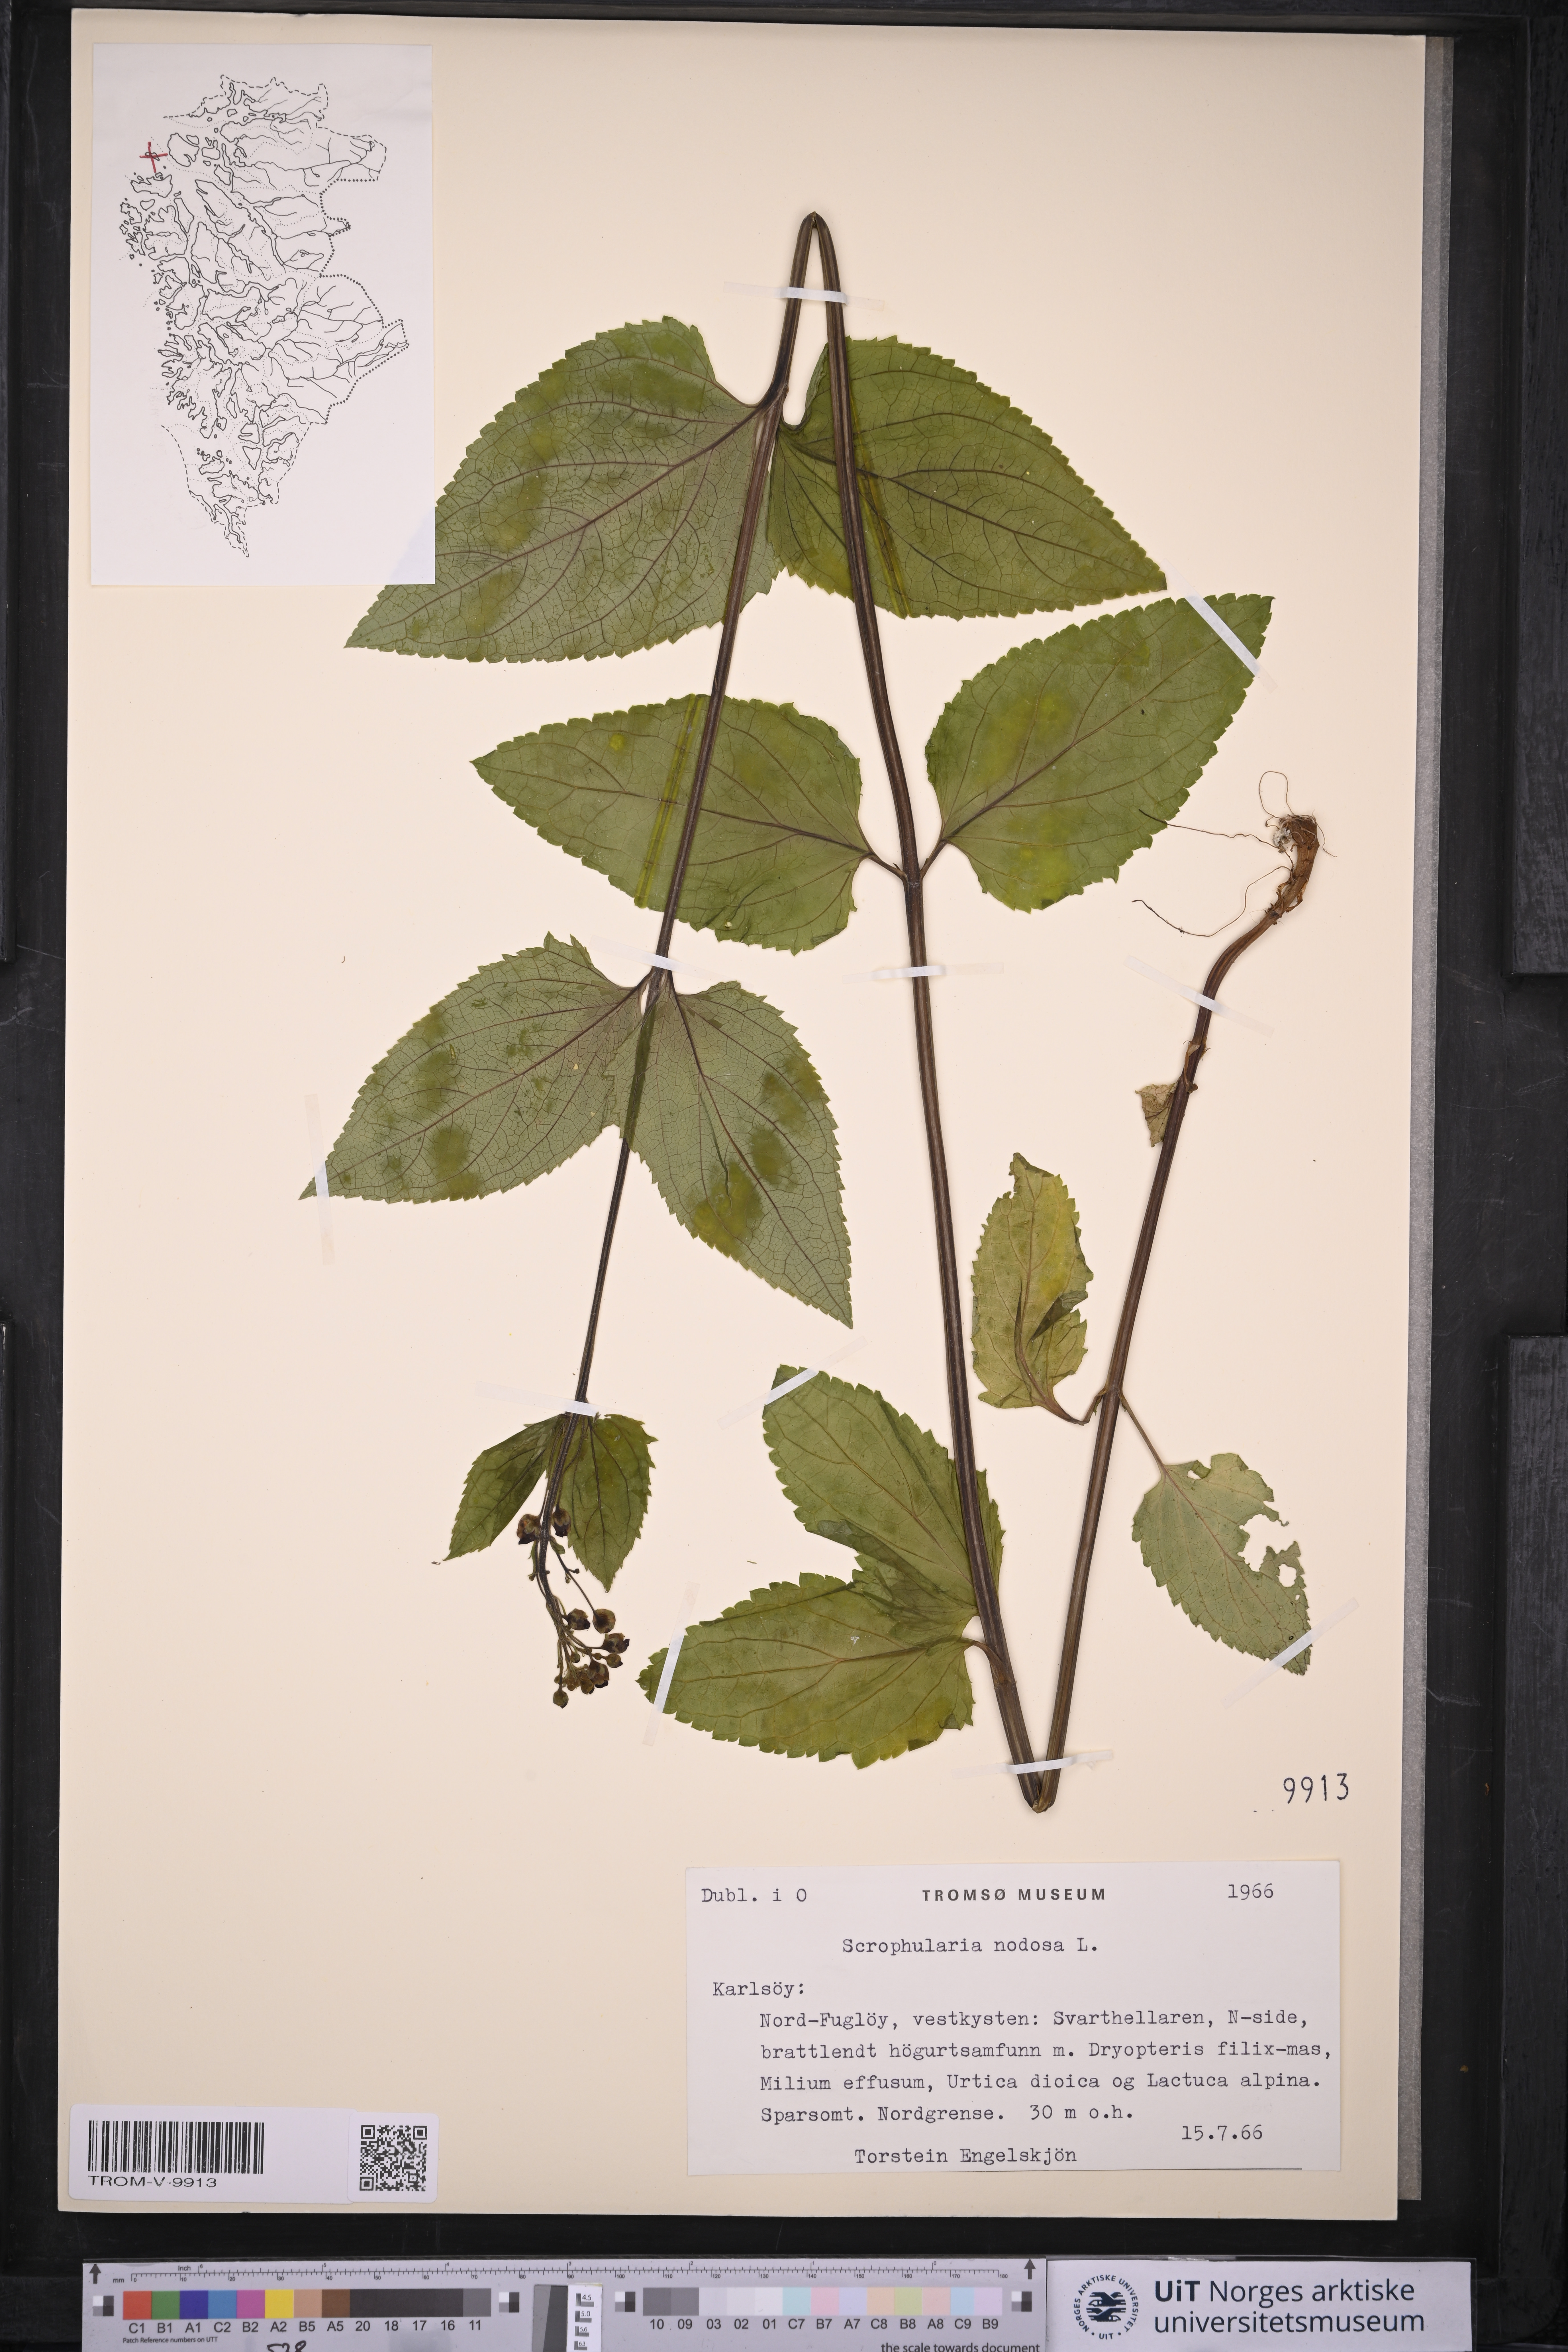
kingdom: Plantae
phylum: Tracheophyta
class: Magnoliopsida
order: Lamiales
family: Scrophulariaceae
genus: Scrophularia
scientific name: Scrophularia nodosa
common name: Common figwort
